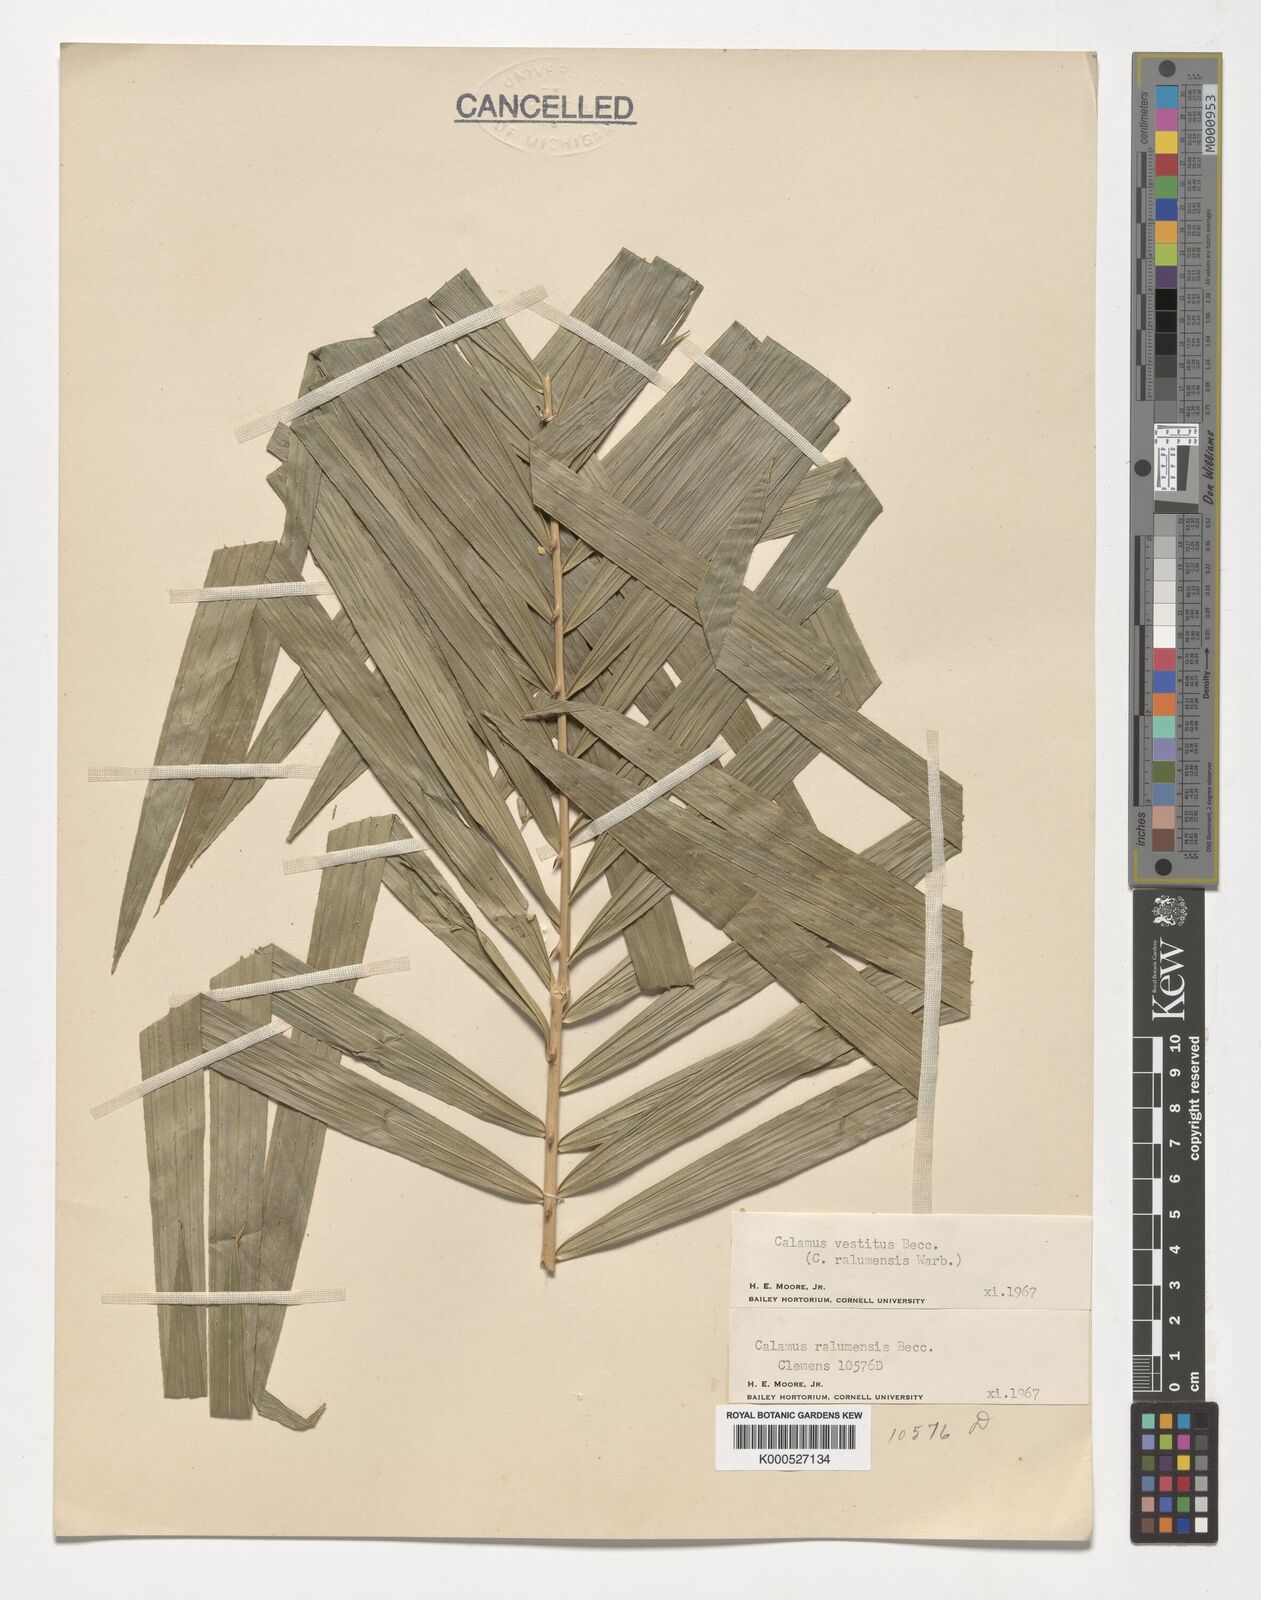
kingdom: Plantae
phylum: Tracheophyta
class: Liliopsida
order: Arecales
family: Arecaceae
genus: Calamus
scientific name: Calamus vestitus
